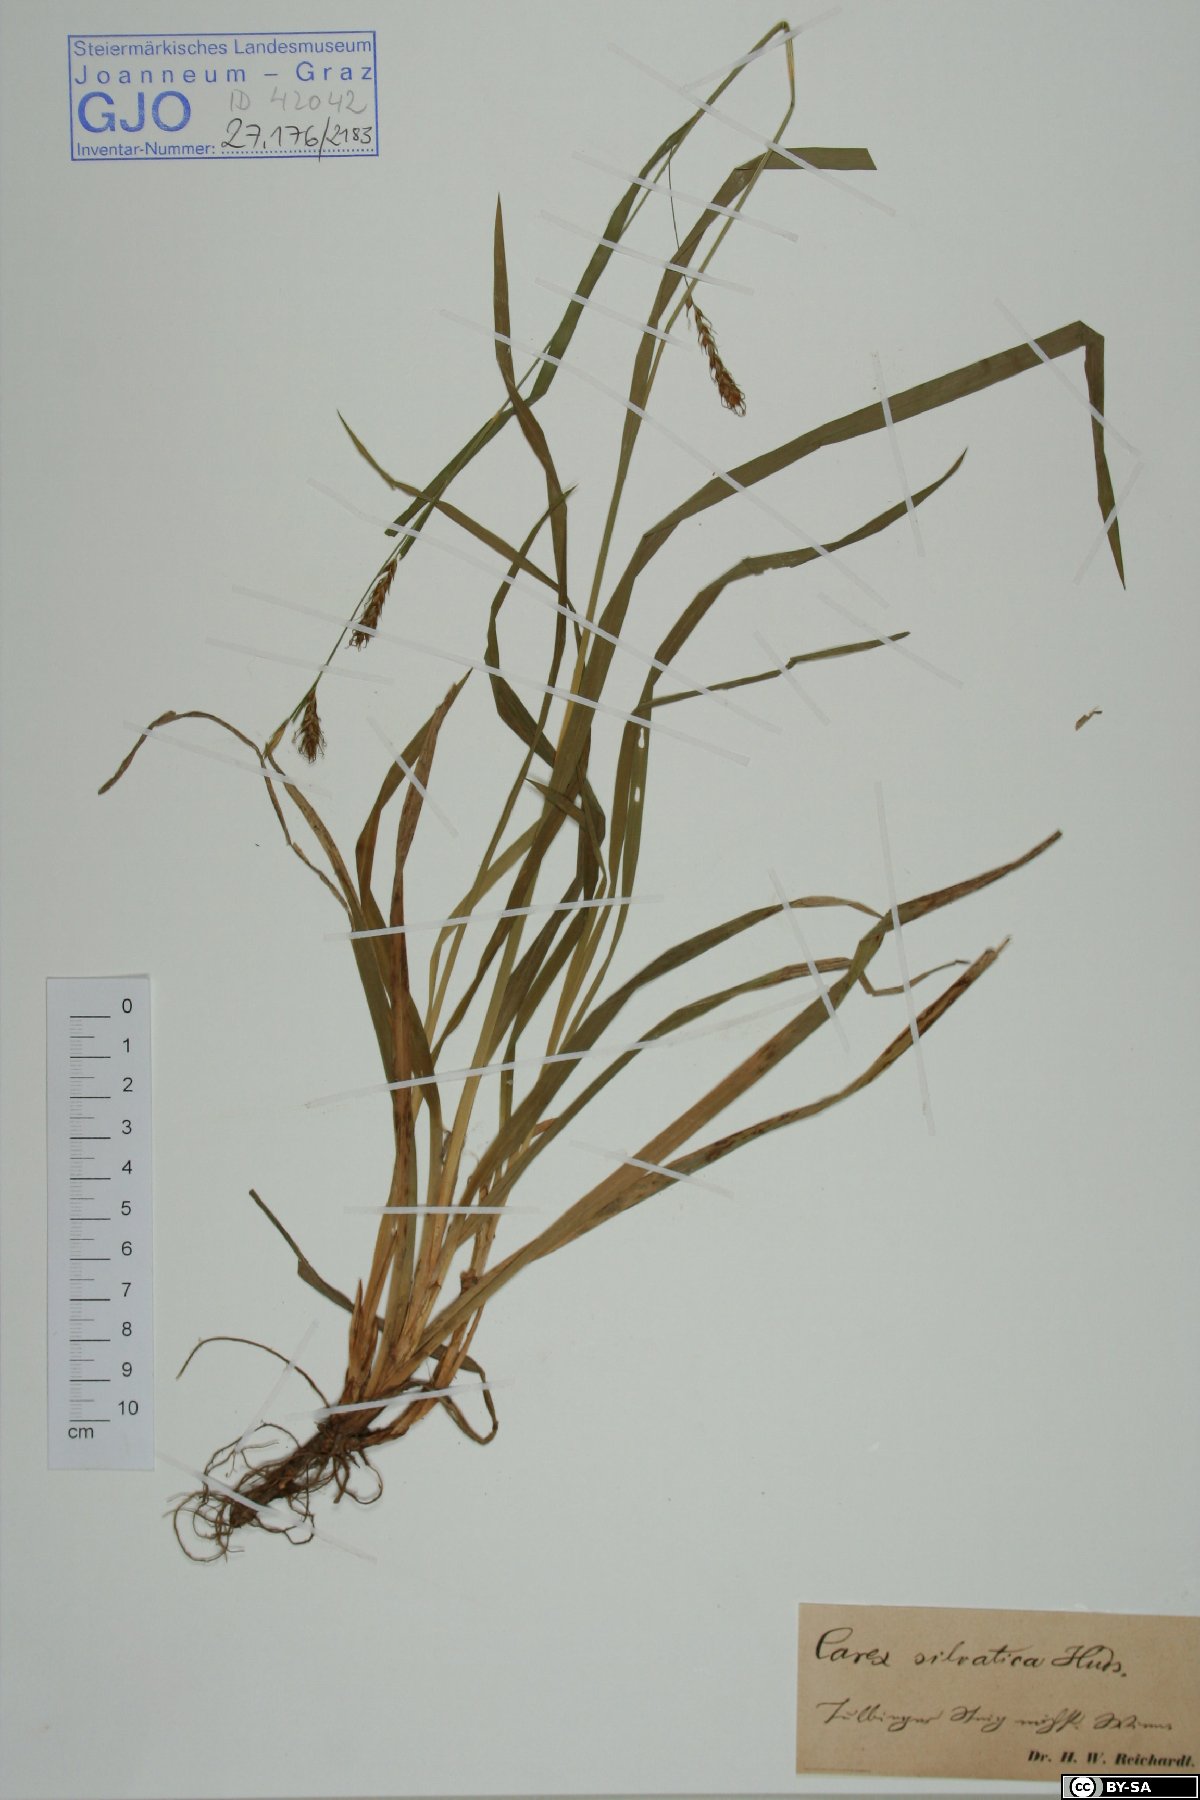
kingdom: Plantae
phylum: Tracheophyta
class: Liliopsida
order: Poales
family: Cyperaceae
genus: Carex
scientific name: Carex sylvatica
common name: Wood-sedge
